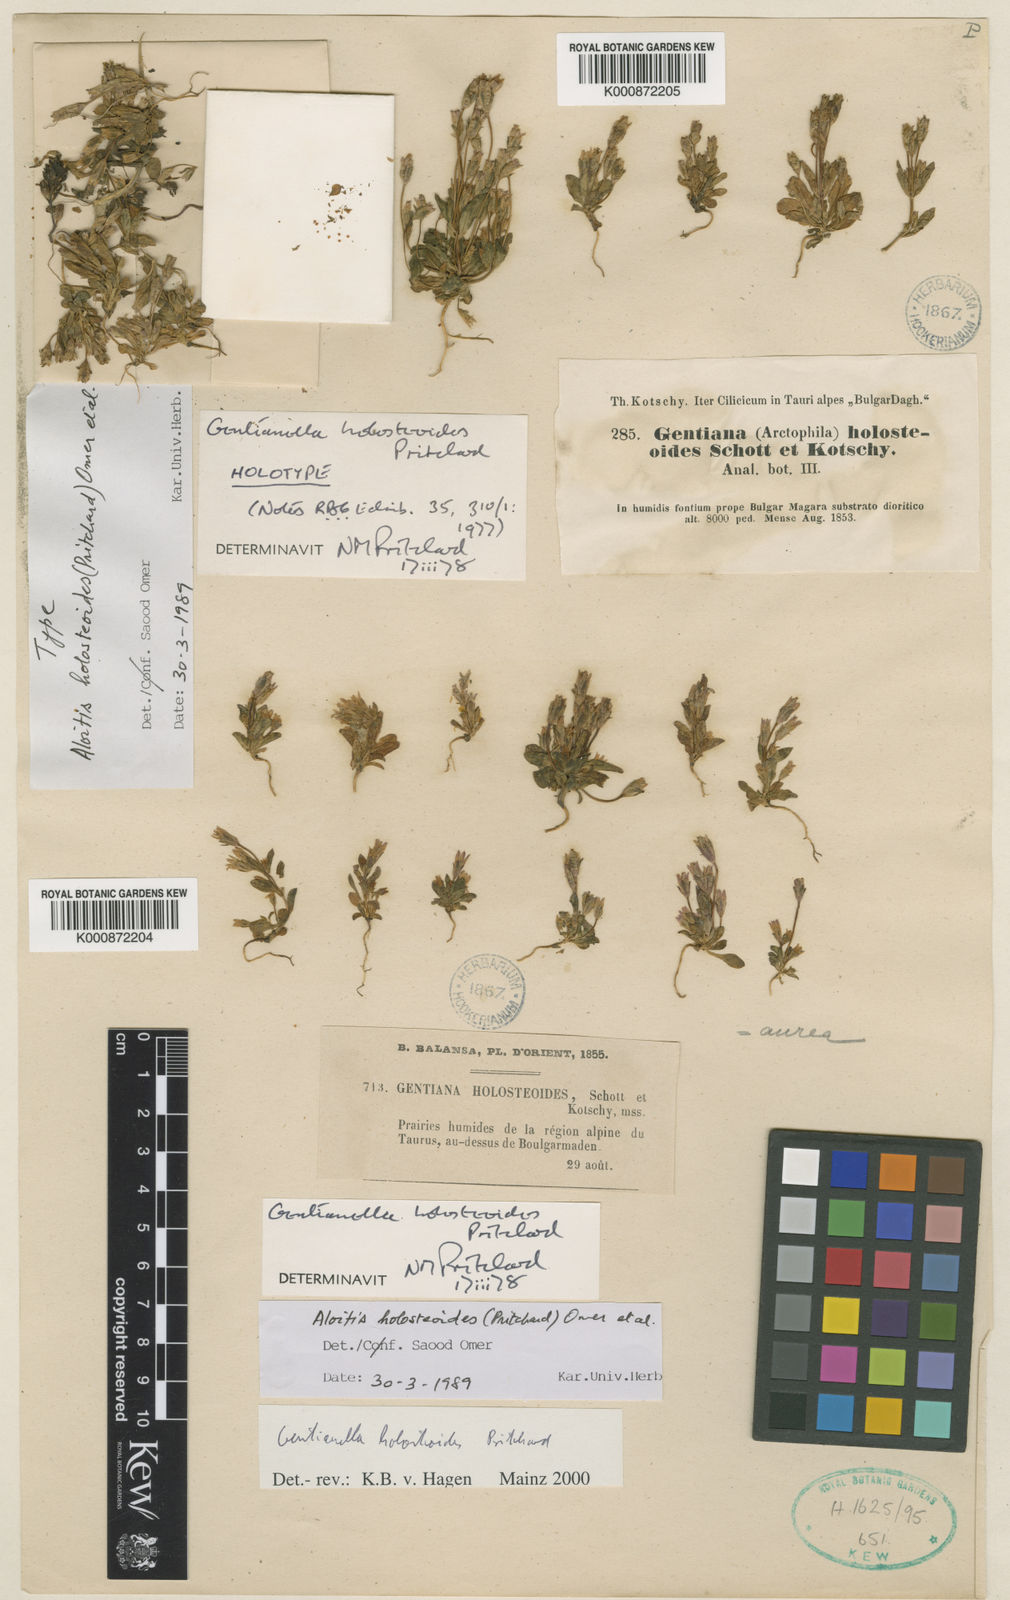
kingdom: Plantae
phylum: Tracheophyta
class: Magnoliopsida
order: Gentianales
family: Gentianaceae
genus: Gentianella
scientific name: Gentianella aurea
